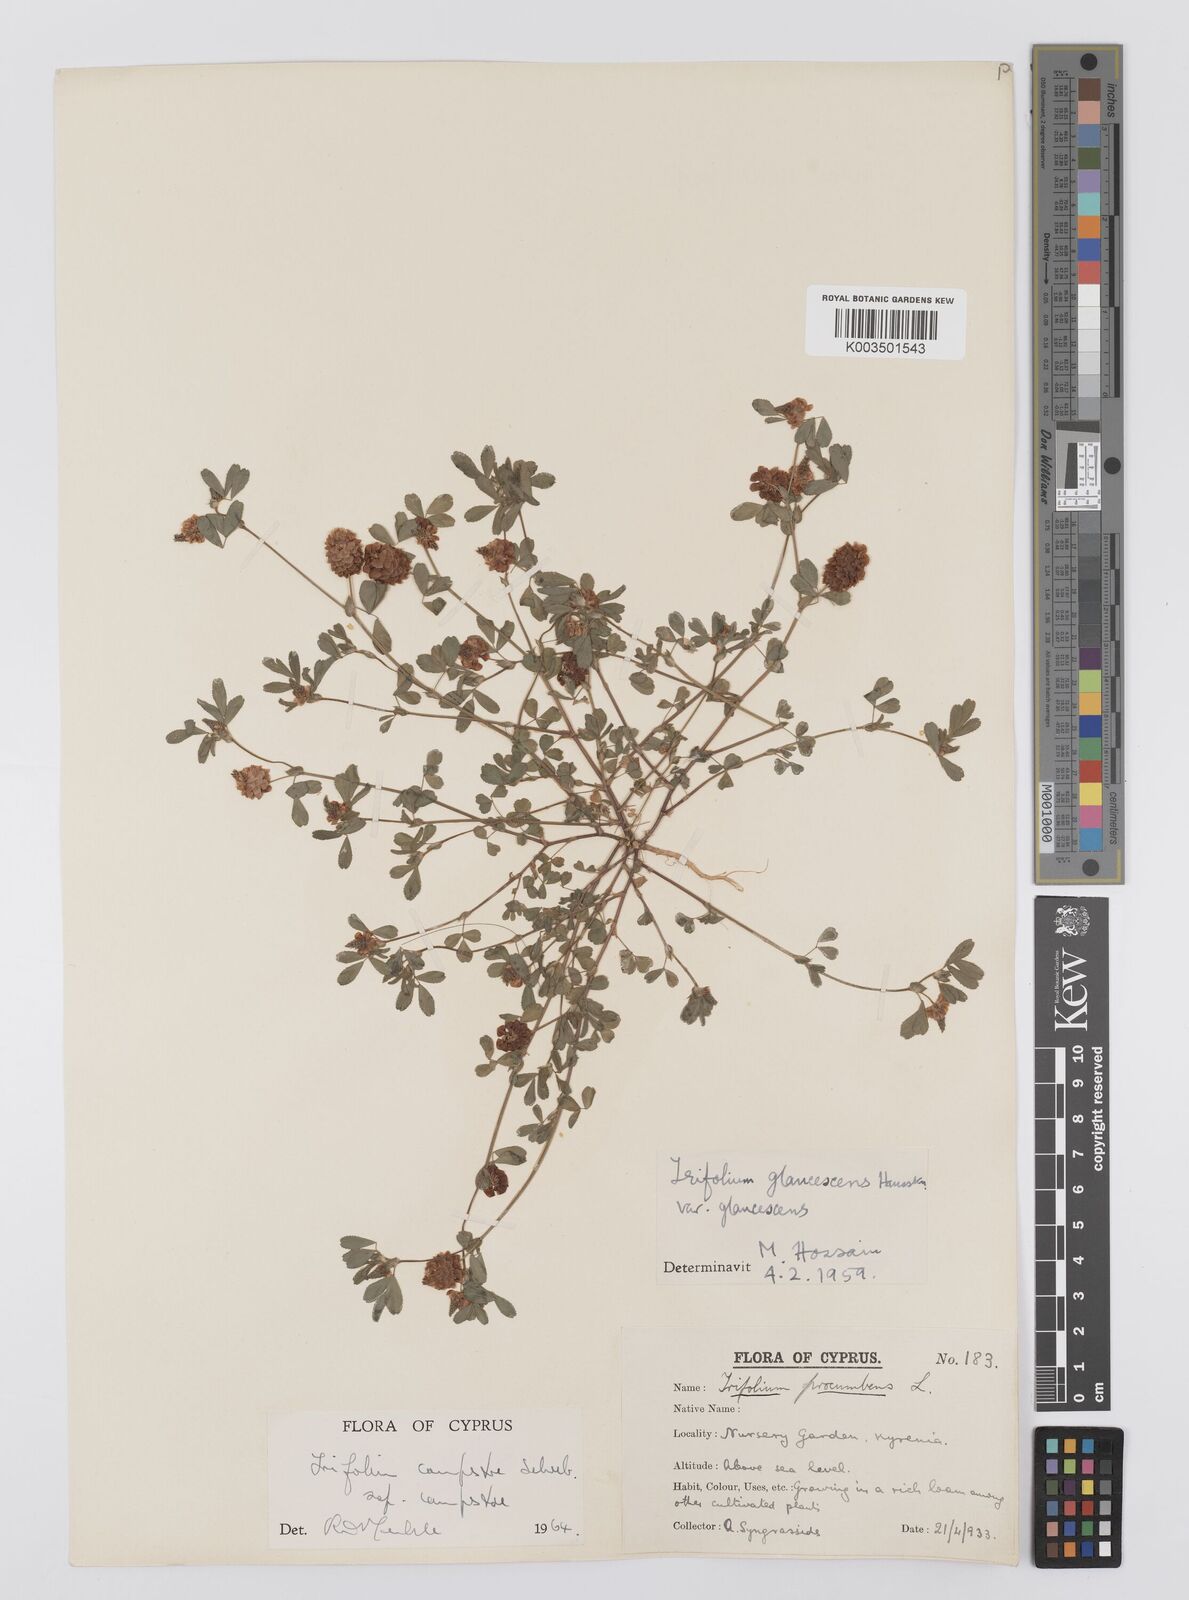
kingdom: Plantae
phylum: Tracheophyta
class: Magnoliopsida
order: Fabales
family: Fabaceae
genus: Trifolium
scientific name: Trifolium campestre
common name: Field clover
